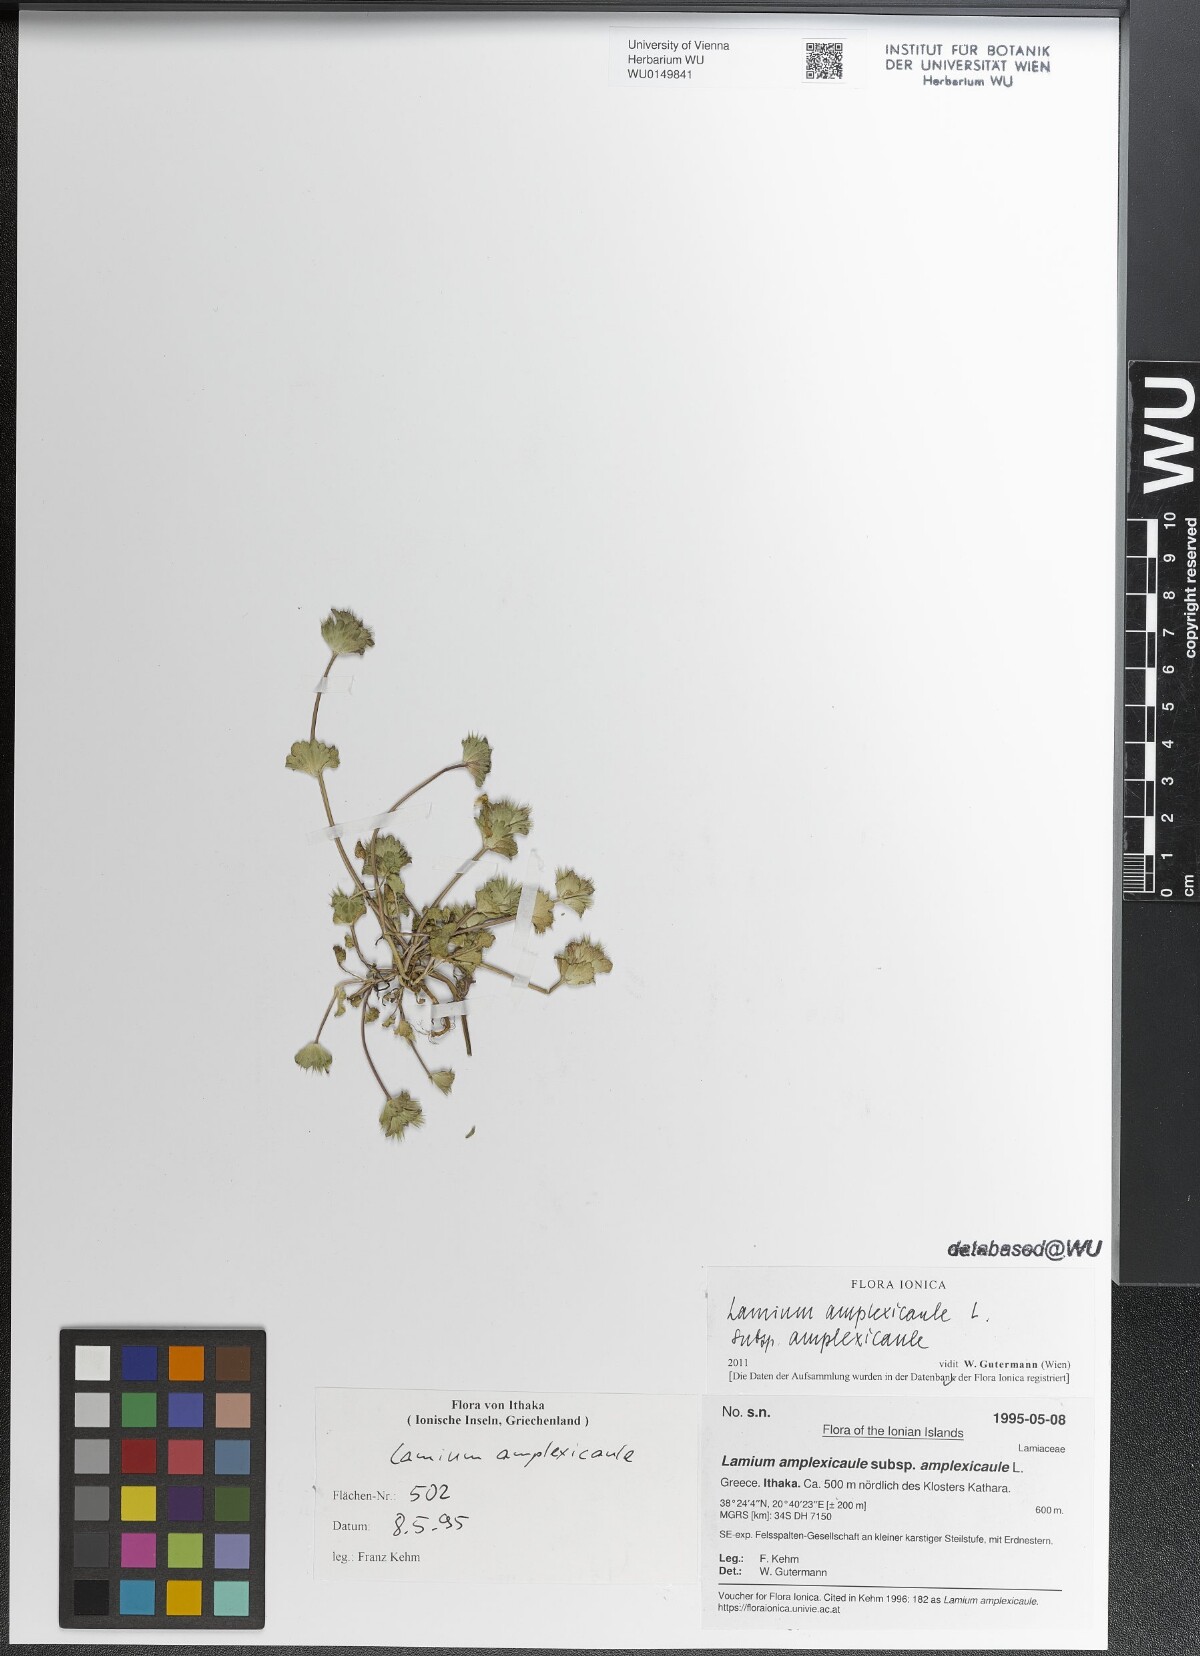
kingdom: Plantae
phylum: Tracheophyta
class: Magnoliopsida
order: Lamiales
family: Lamiaceae
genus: Lamium
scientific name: Lamium amplexicaule
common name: Henbit dead-nettle
